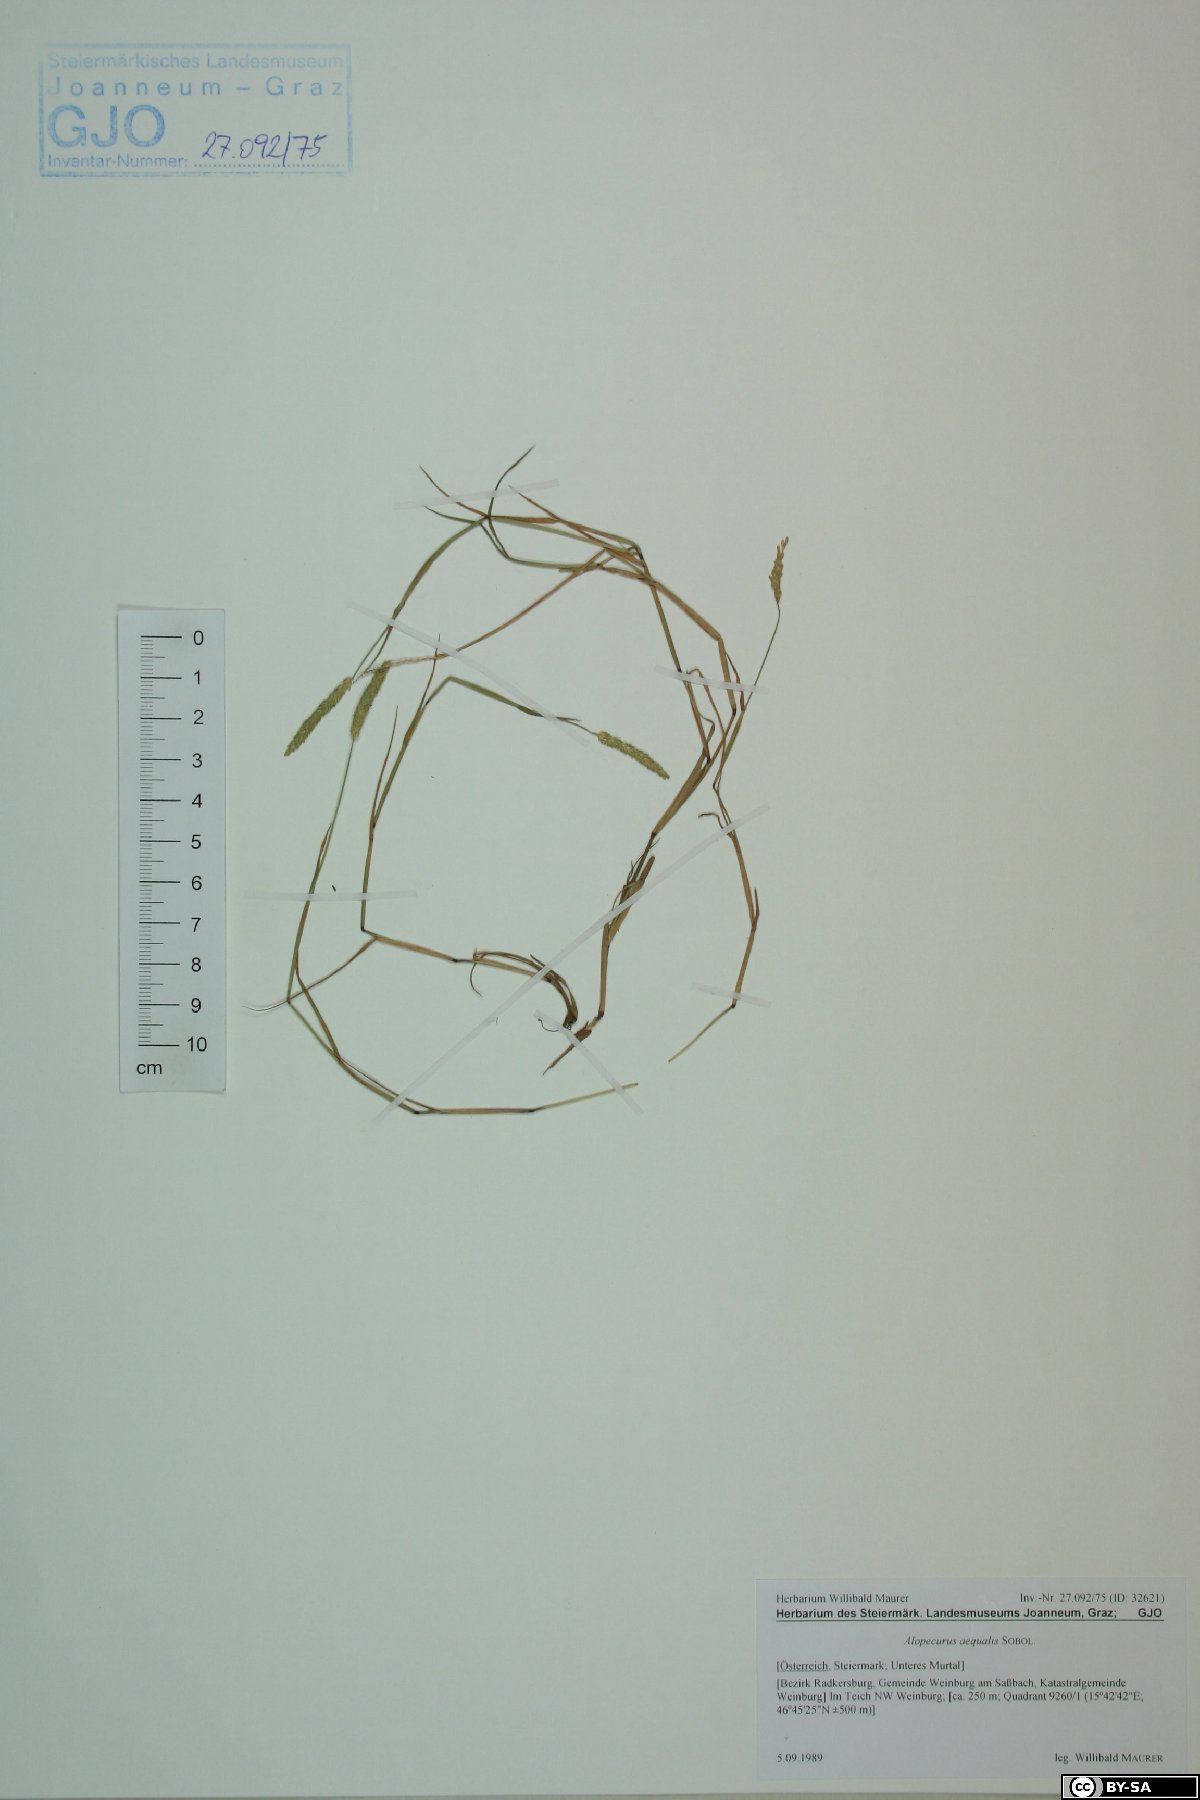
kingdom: Plantae
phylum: Tracheophyta
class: Liliopsida
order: Poales
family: Poaceae
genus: Alopecurus
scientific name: Alopecurus aequalis
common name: Orange foxtail
